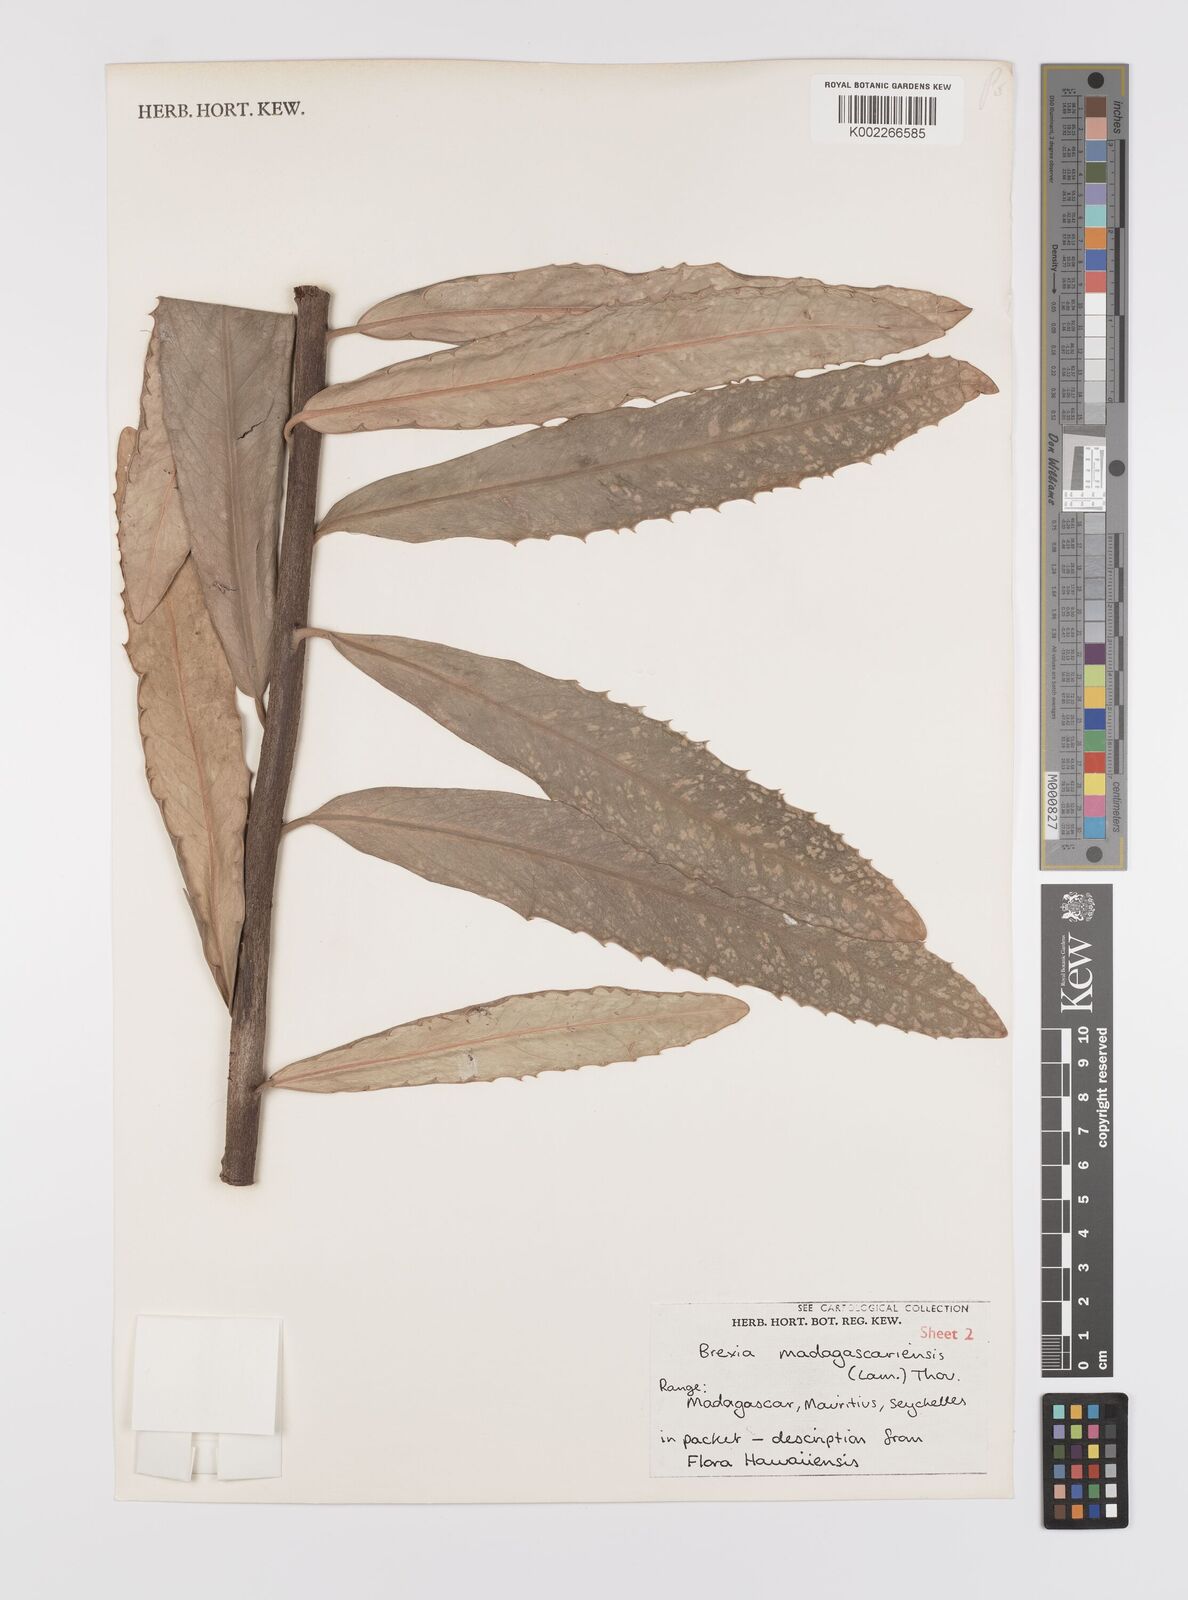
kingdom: Plantae
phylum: Tracheophyta
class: Magnoliopsida
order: Celastrales
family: Celastraceae
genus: Brexia
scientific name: Brexia madagascariensis
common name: Brexia
